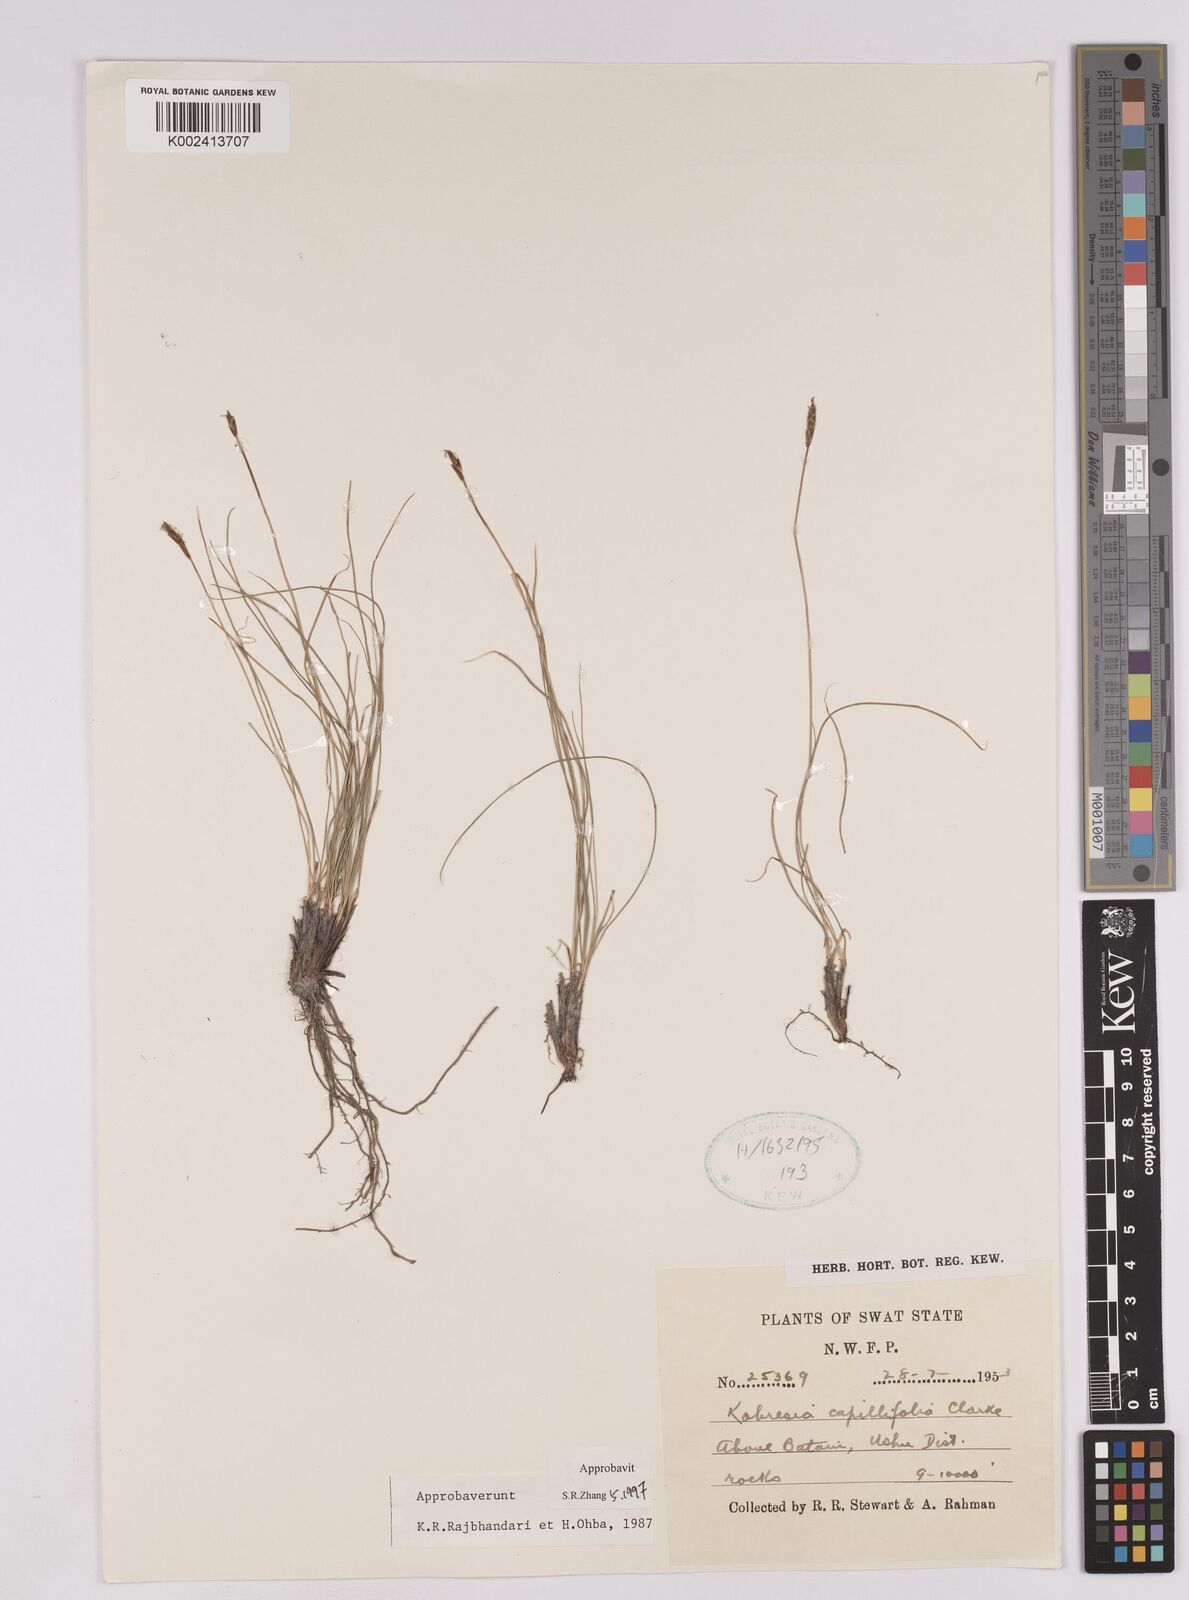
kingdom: Plantae
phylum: Tracheophyta
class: Liliopsida
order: Poales
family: Cyperaceae
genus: Carex
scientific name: Carex capillifolia
